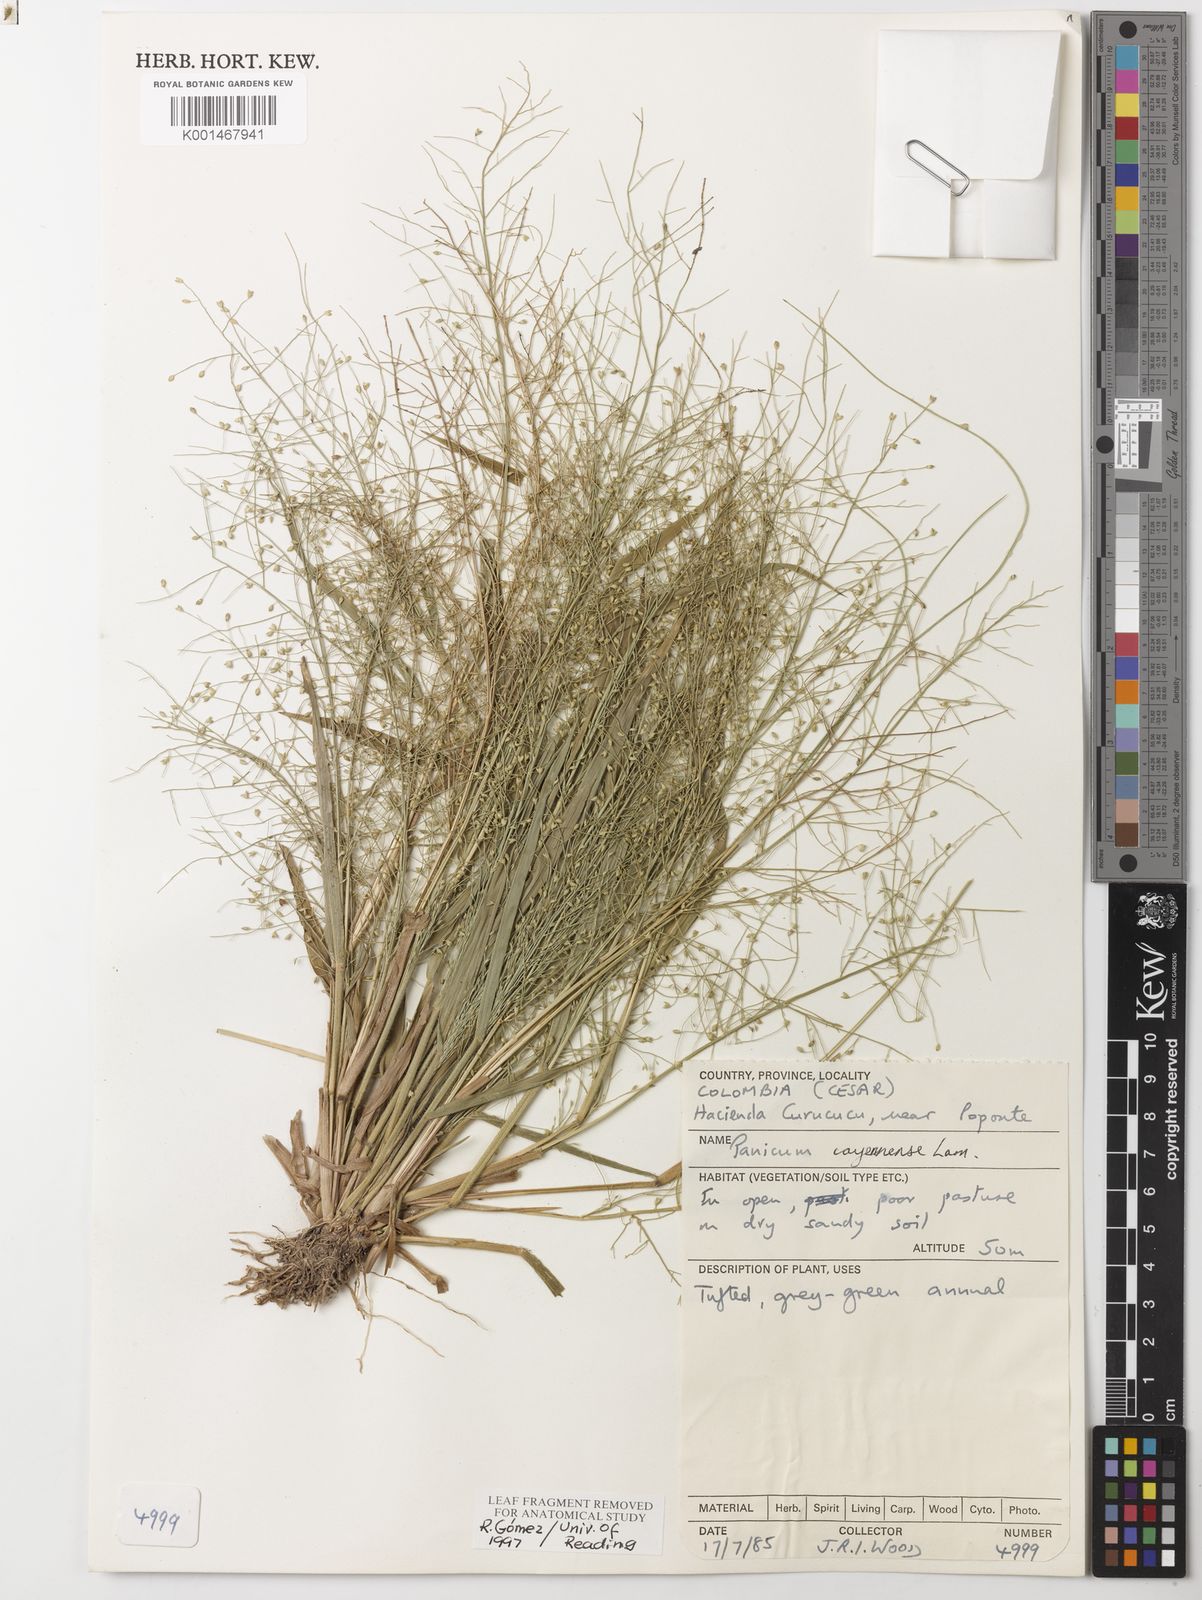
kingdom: Plantae
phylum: Tracheophyta
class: Liliopsida
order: Poales
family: Poaceae
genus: Panicum
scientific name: Panicum cayennense
